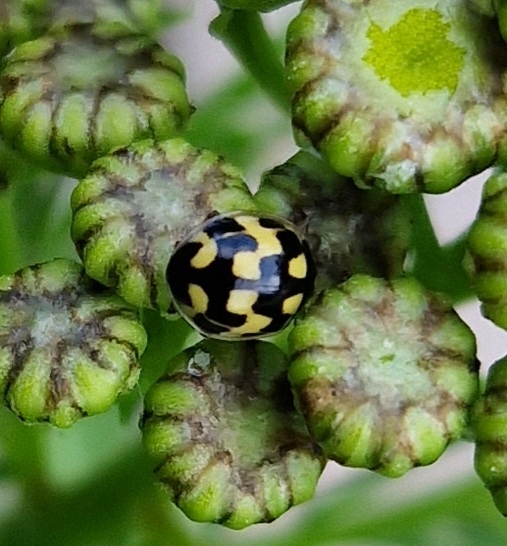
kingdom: Animalia
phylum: Arthropoda
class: Insecta
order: Coleoptera
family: Coccinellidae
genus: Propylaea
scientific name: Propylaea quatuordecimpunctata
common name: Skakbræt
